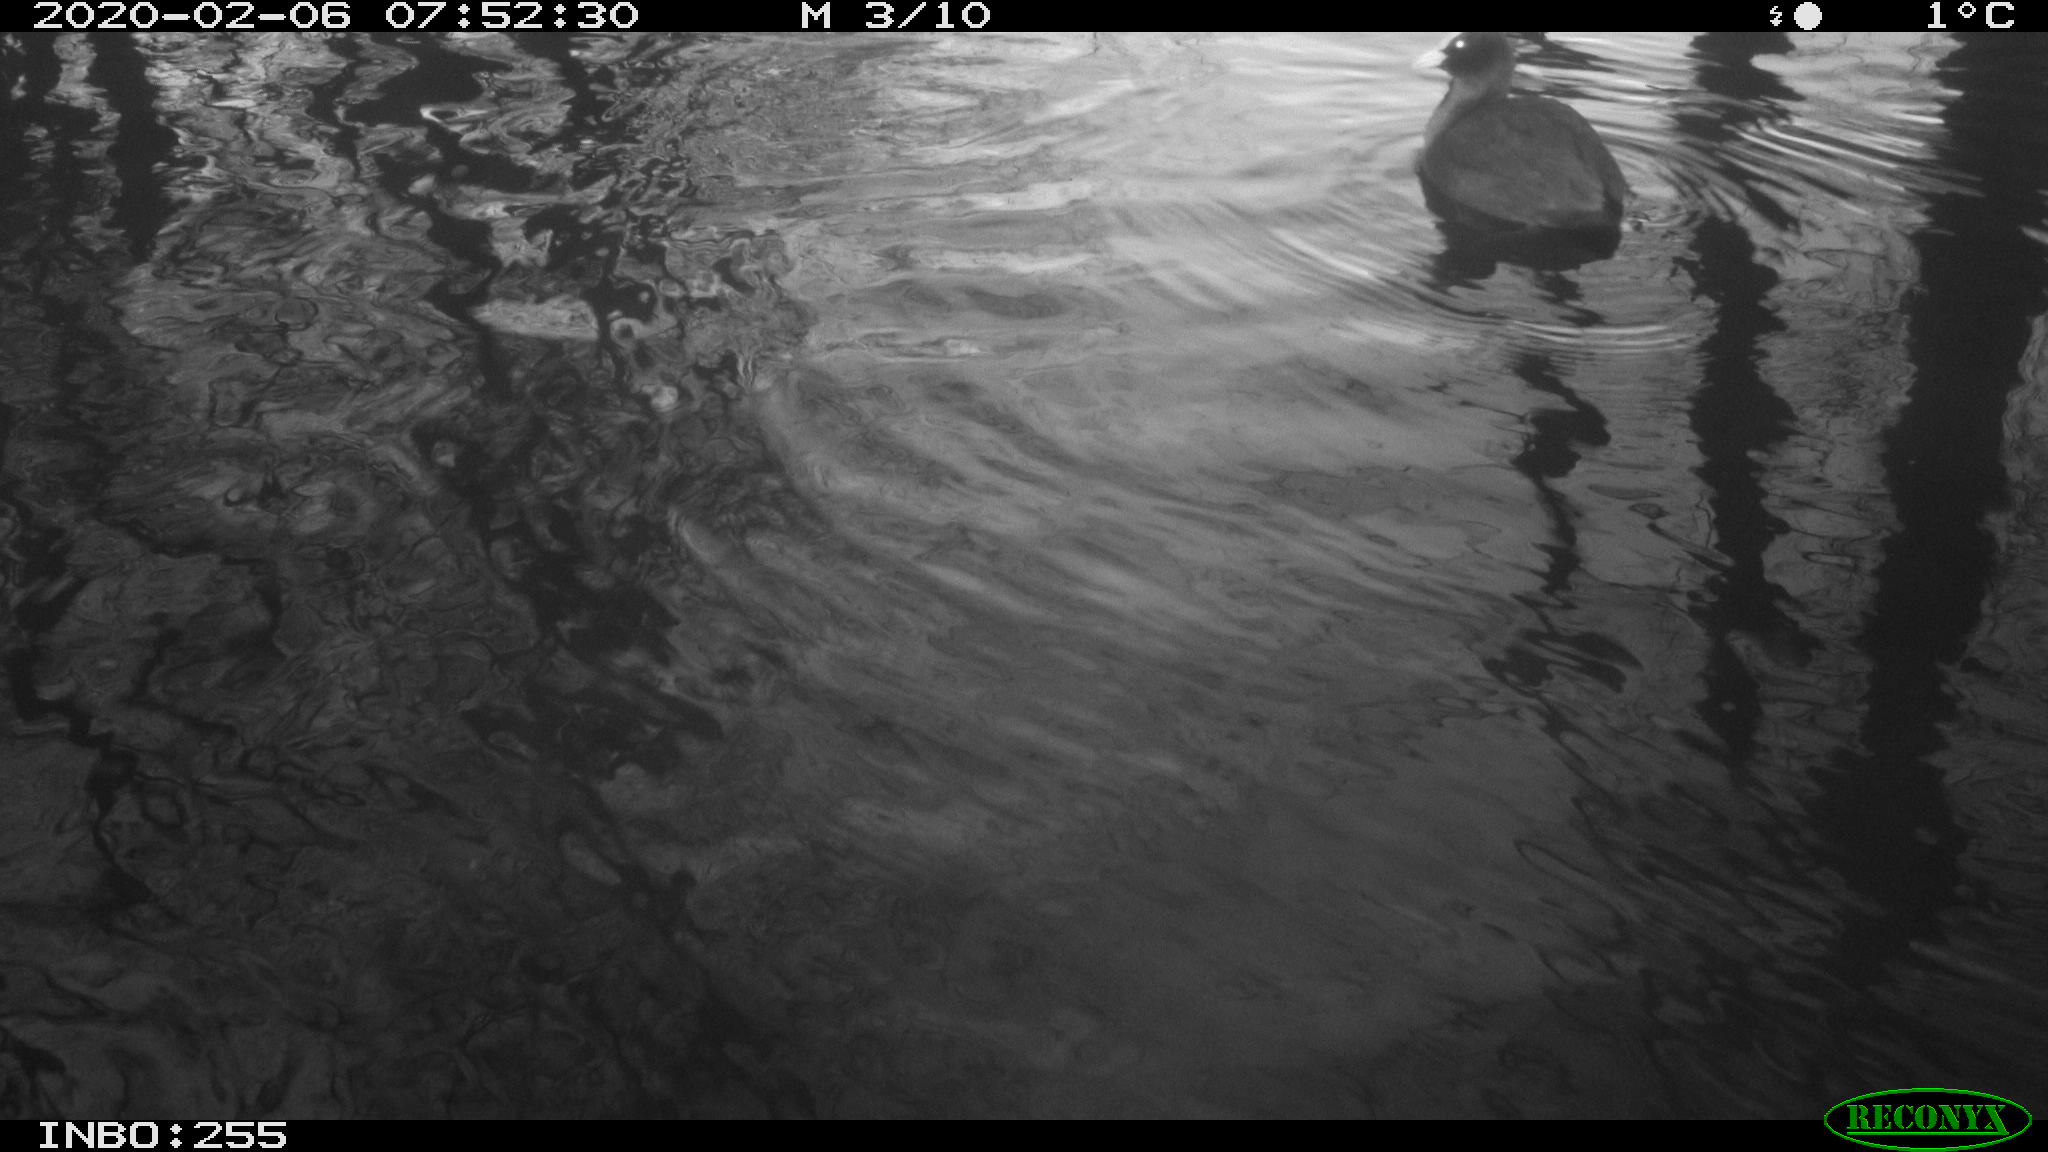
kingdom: Animalia
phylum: Chordata
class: Aves
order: Gruiformes
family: Rallidae
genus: Fulica
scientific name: Fulica atra
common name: Eurasian coot
